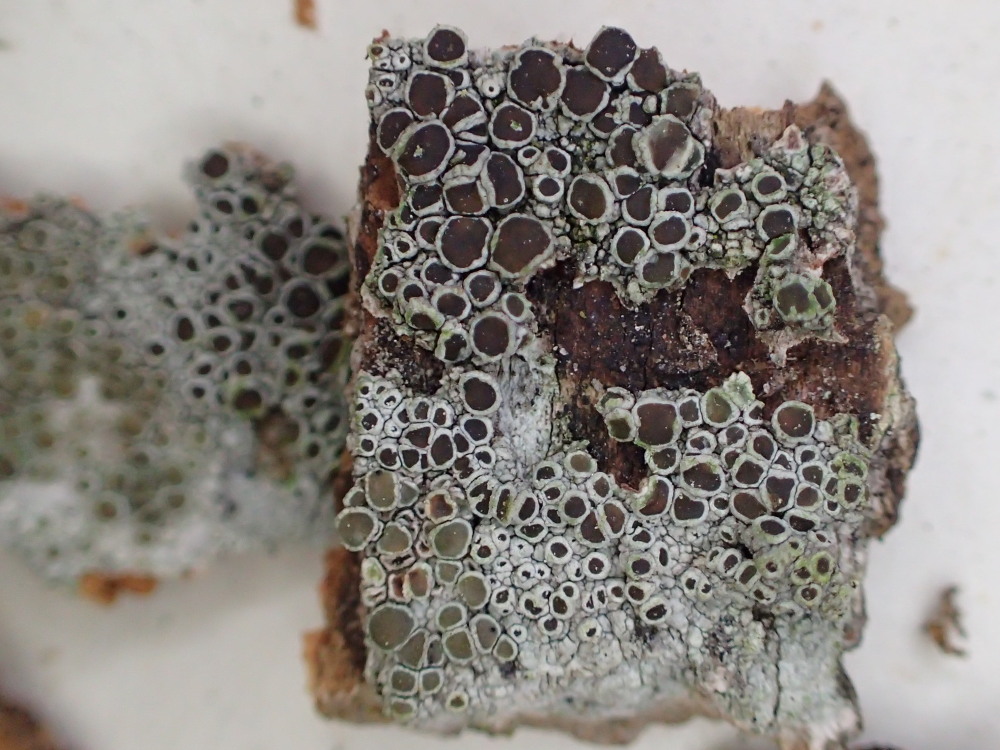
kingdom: Fungi
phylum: Ascomycota
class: Lecanoromycetes
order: Lecanorales
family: Lecanoraceae
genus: Lecanora
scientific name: Lecanora chlarotera
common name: brun kantskivelav
